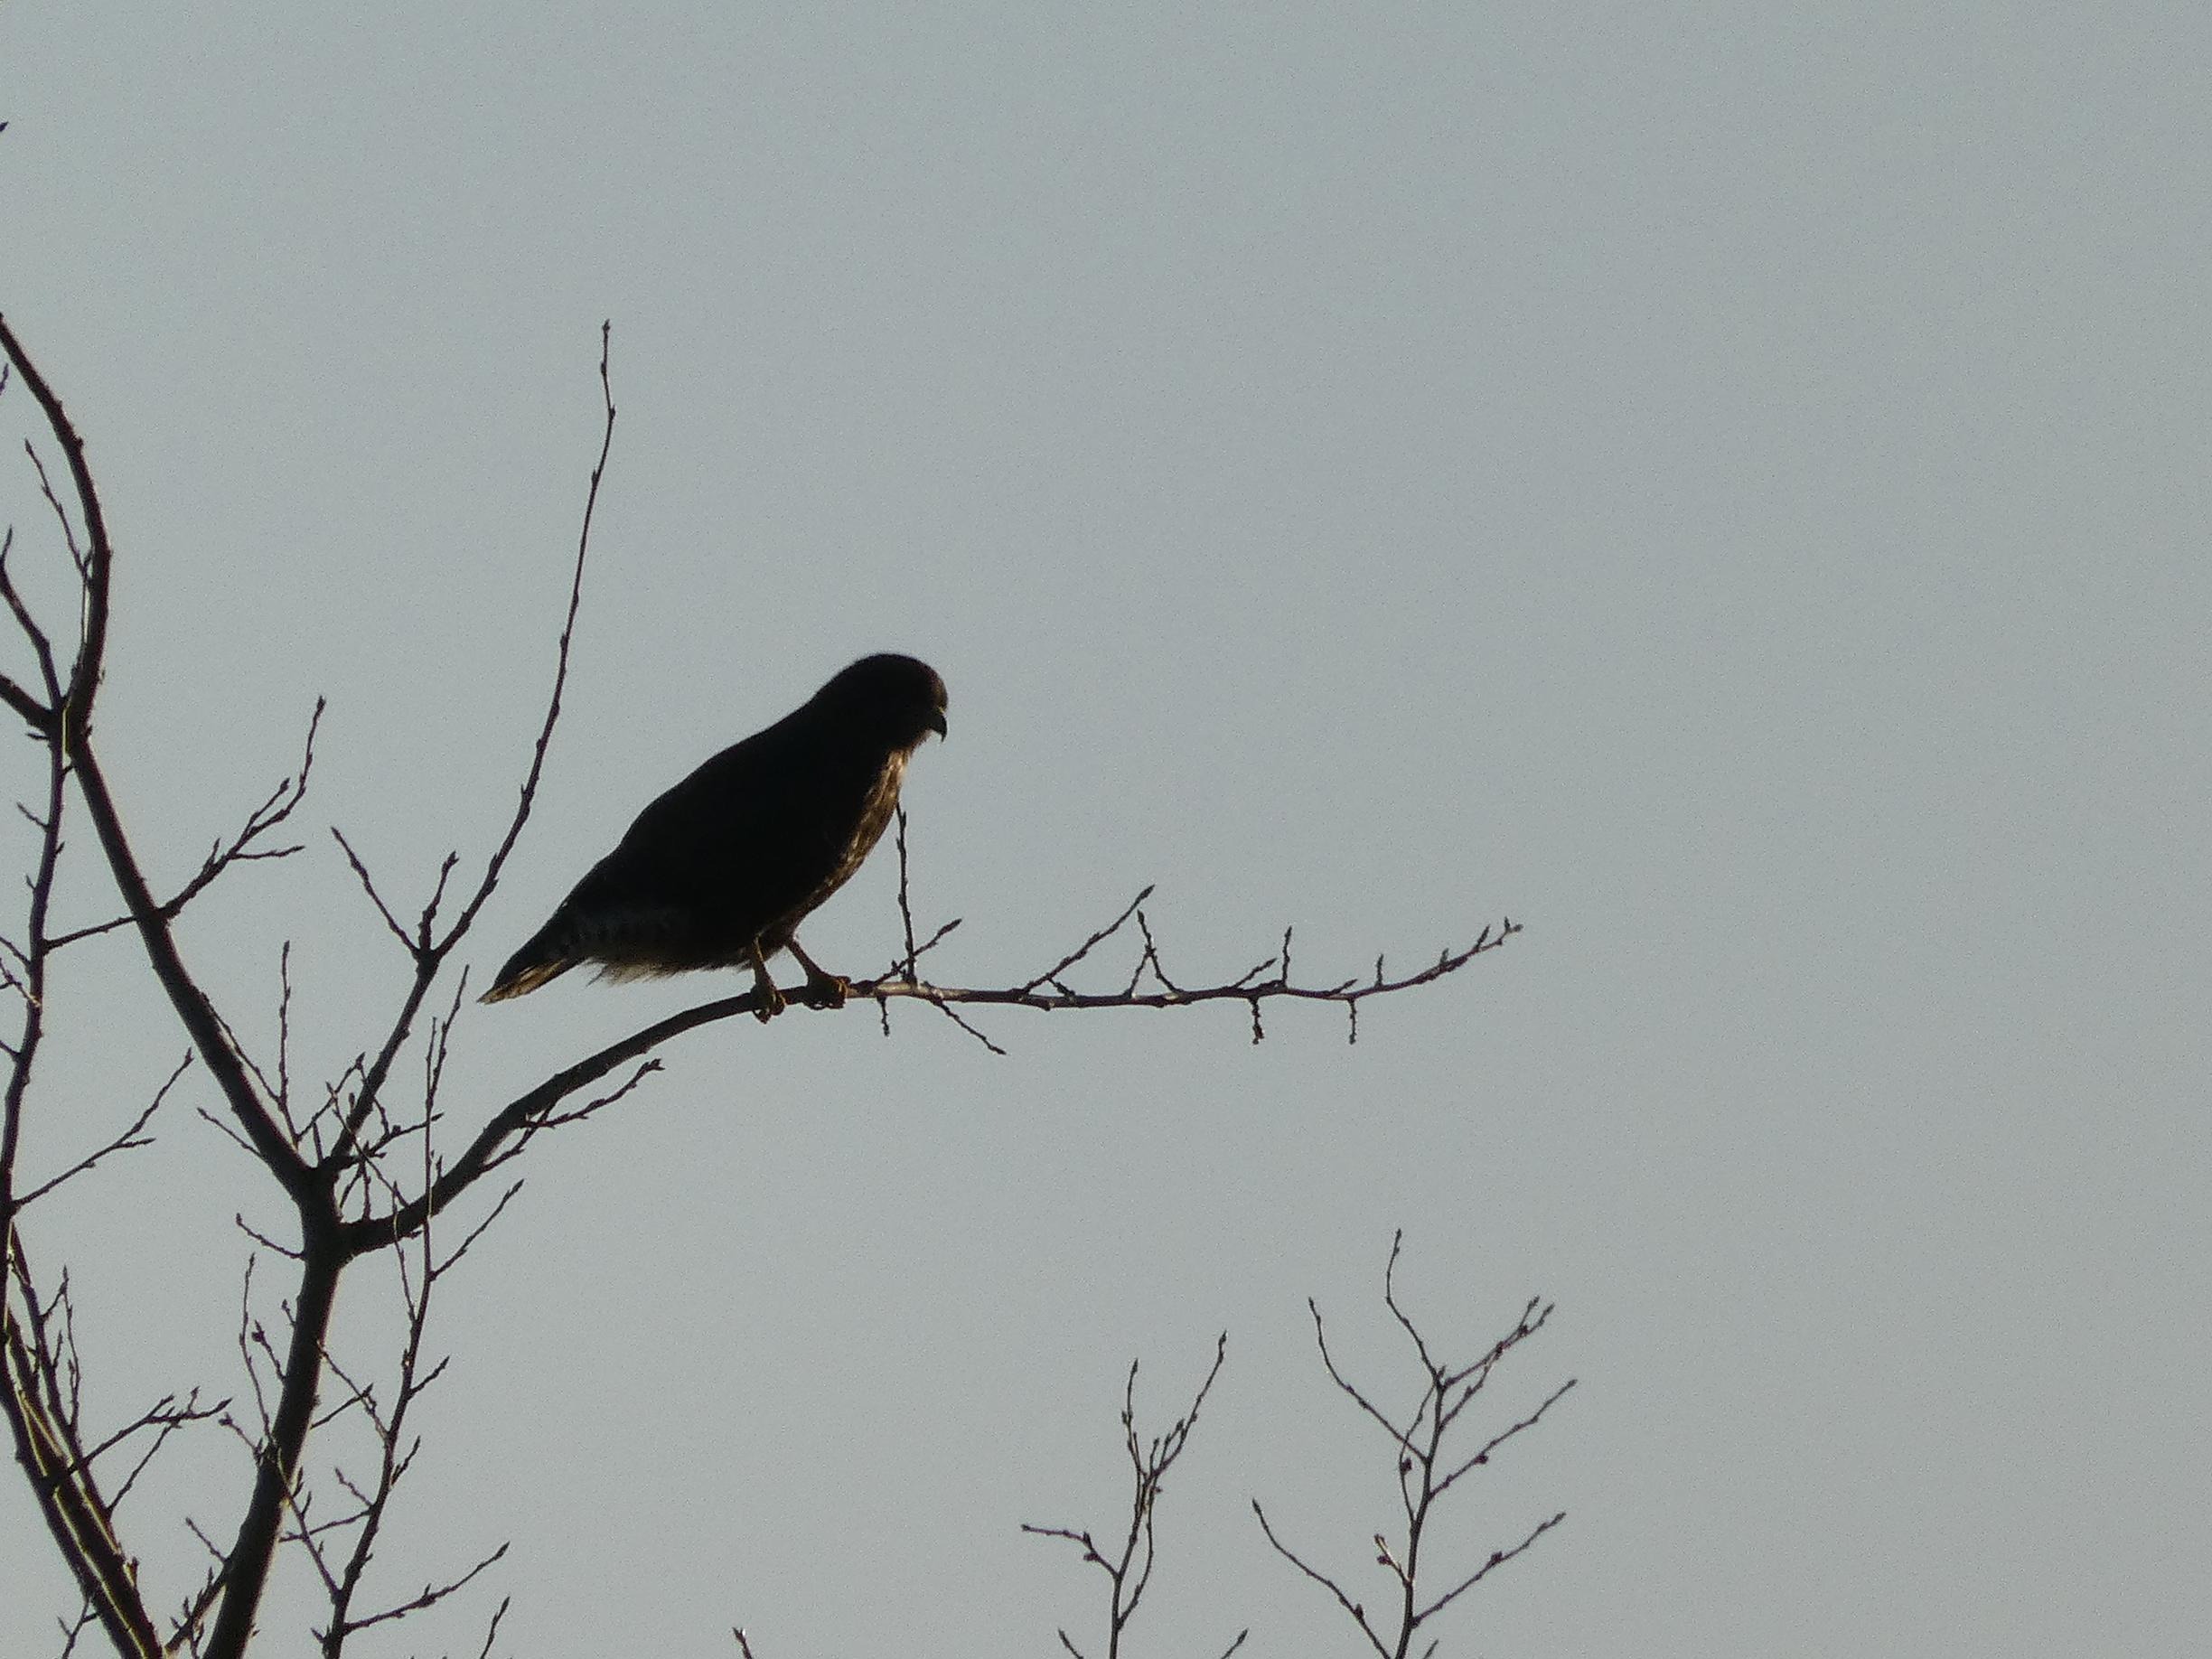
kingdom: Animalia
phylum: Chordata
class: Aves
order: Accipitriformes
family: Accipitridae
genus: Buteo
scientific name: Buteo buteo
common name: Musvåge
